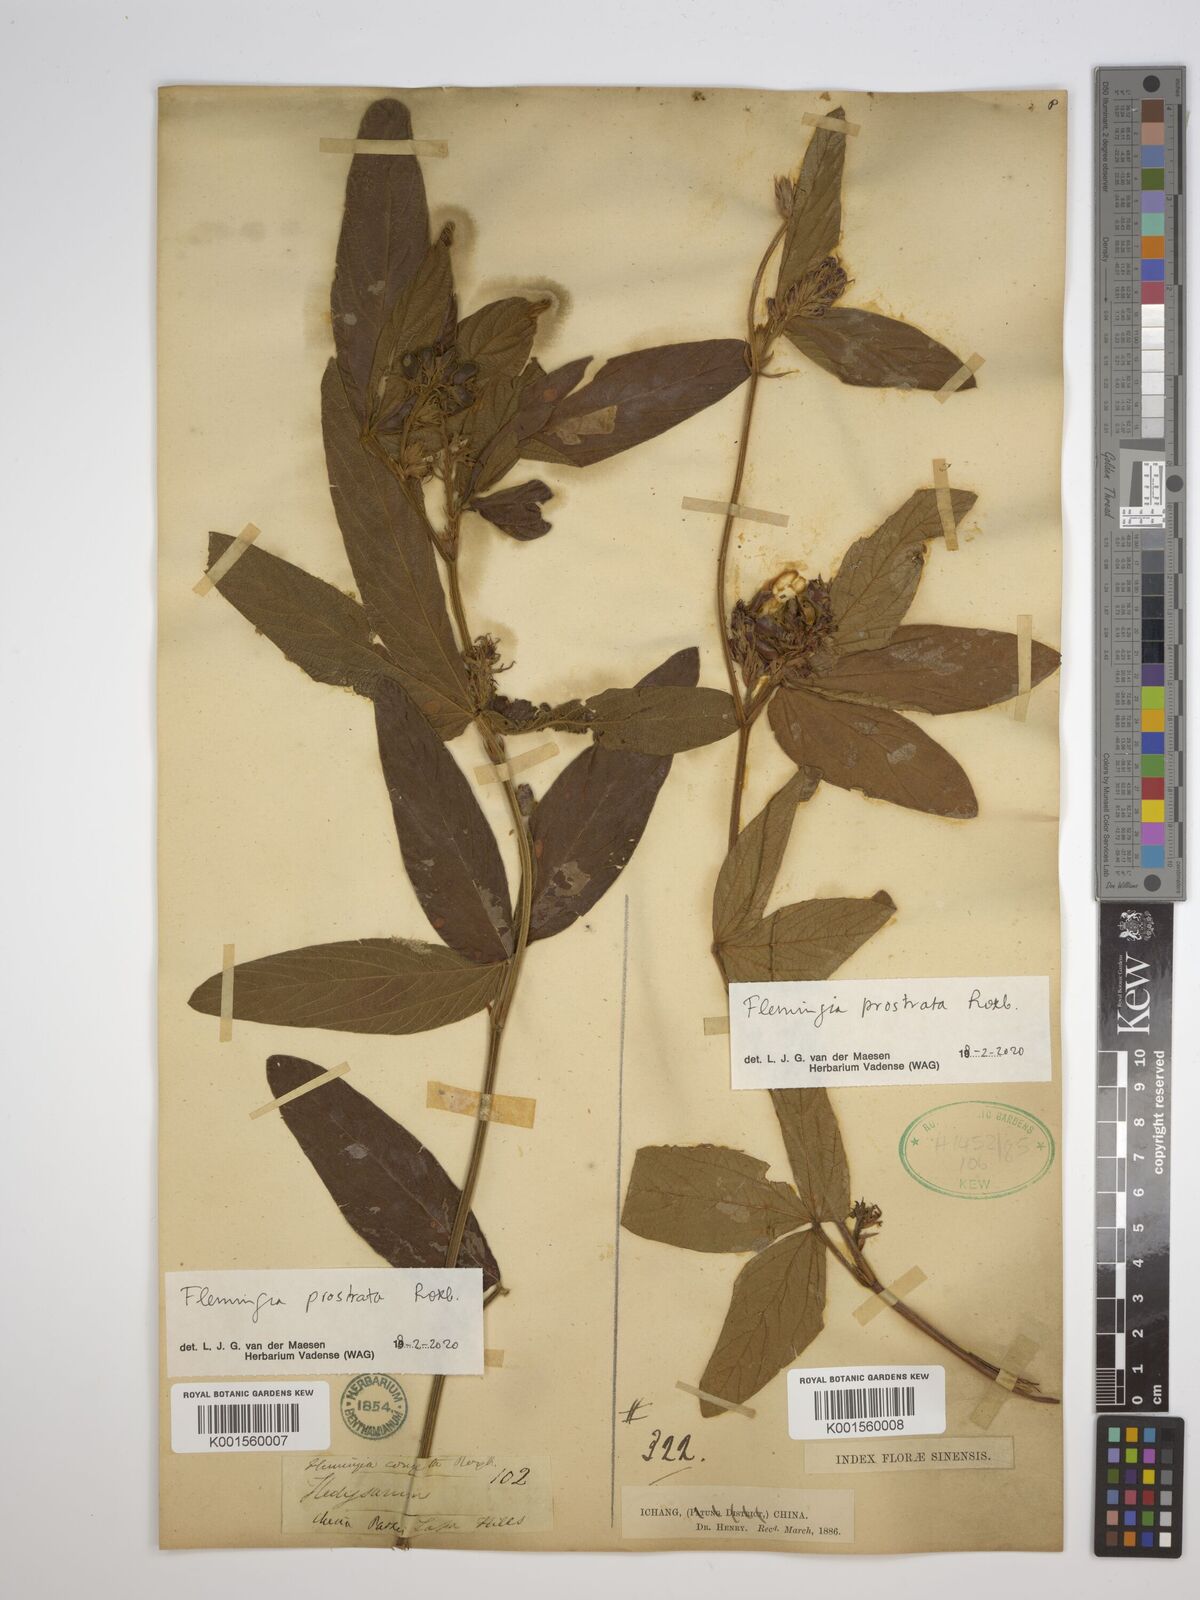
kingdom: Plantae
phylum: Tracheophyta
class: Magnoliopsida
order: Fabales
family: Fabaceae
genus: Flemingia
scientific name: Flemingia prostrata
